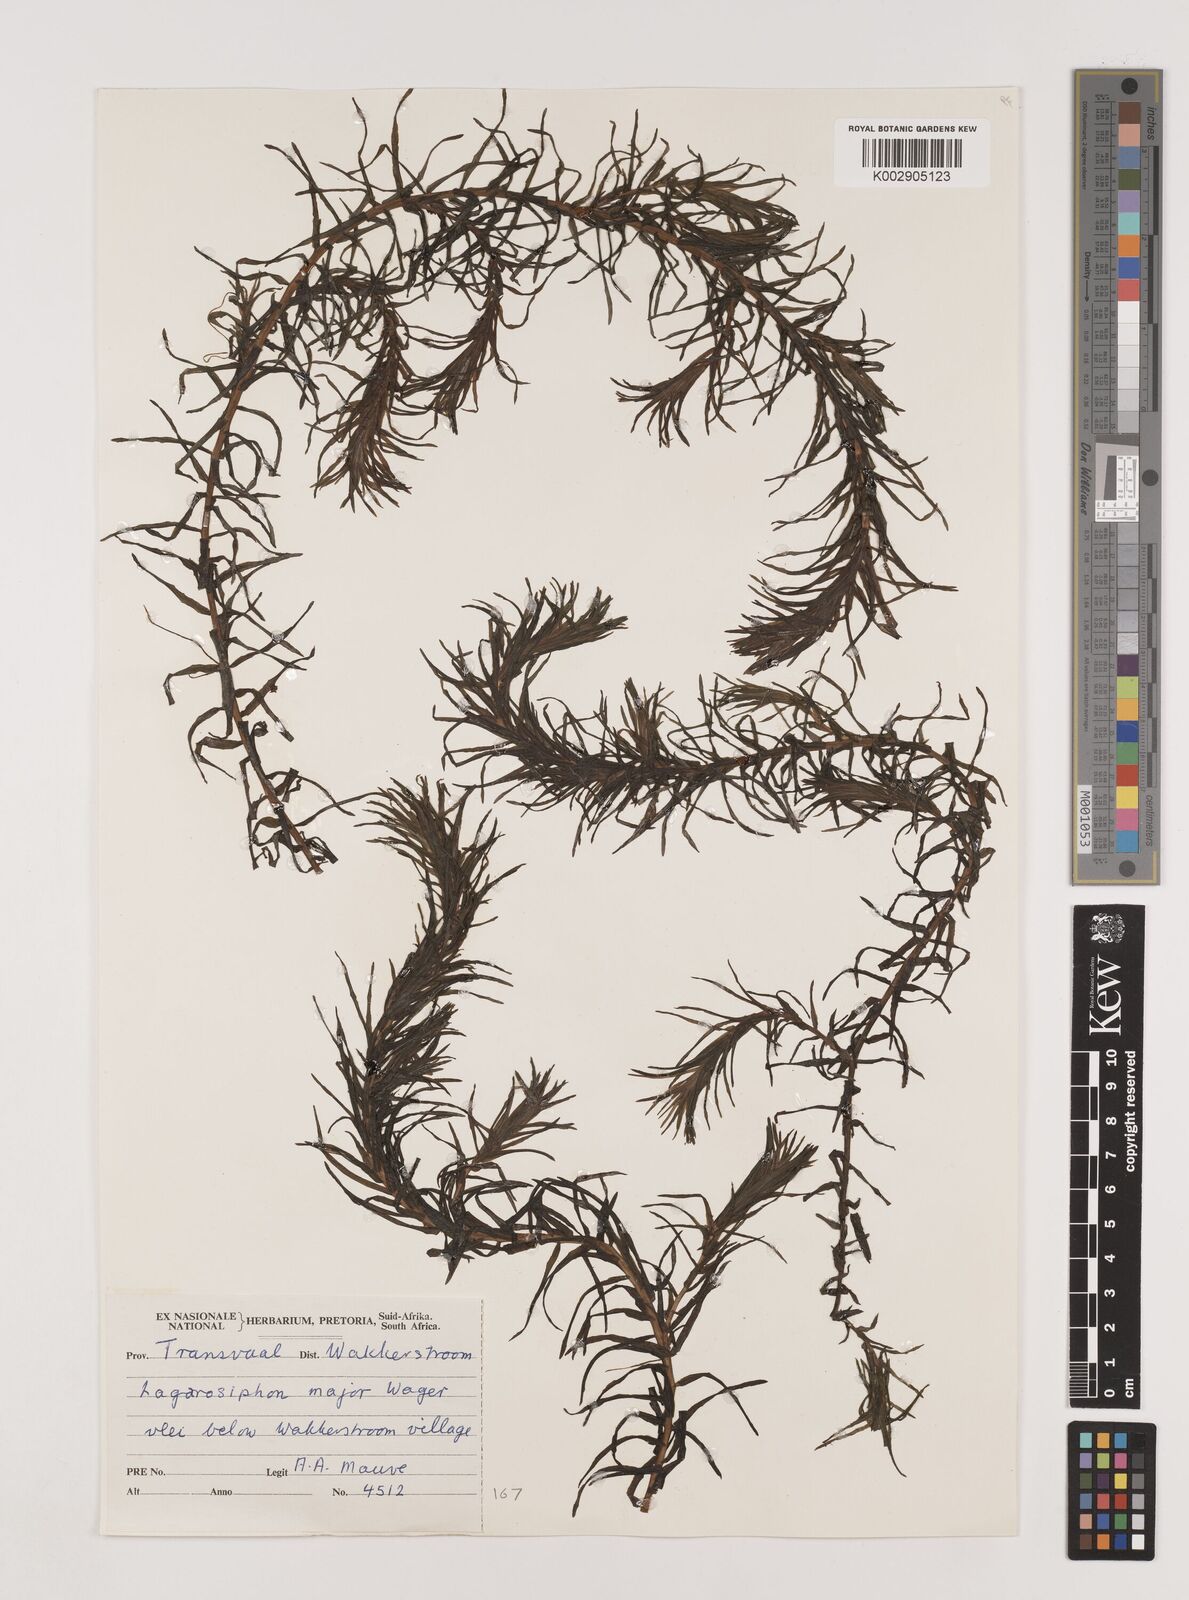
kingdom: Plantae
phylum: Tracheophyta
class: Liliopsida
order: Alismatales
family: Hydrocharitaceae
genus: Lagarosiphon
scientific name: Lagarosiphon major
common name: Curly waterweed
